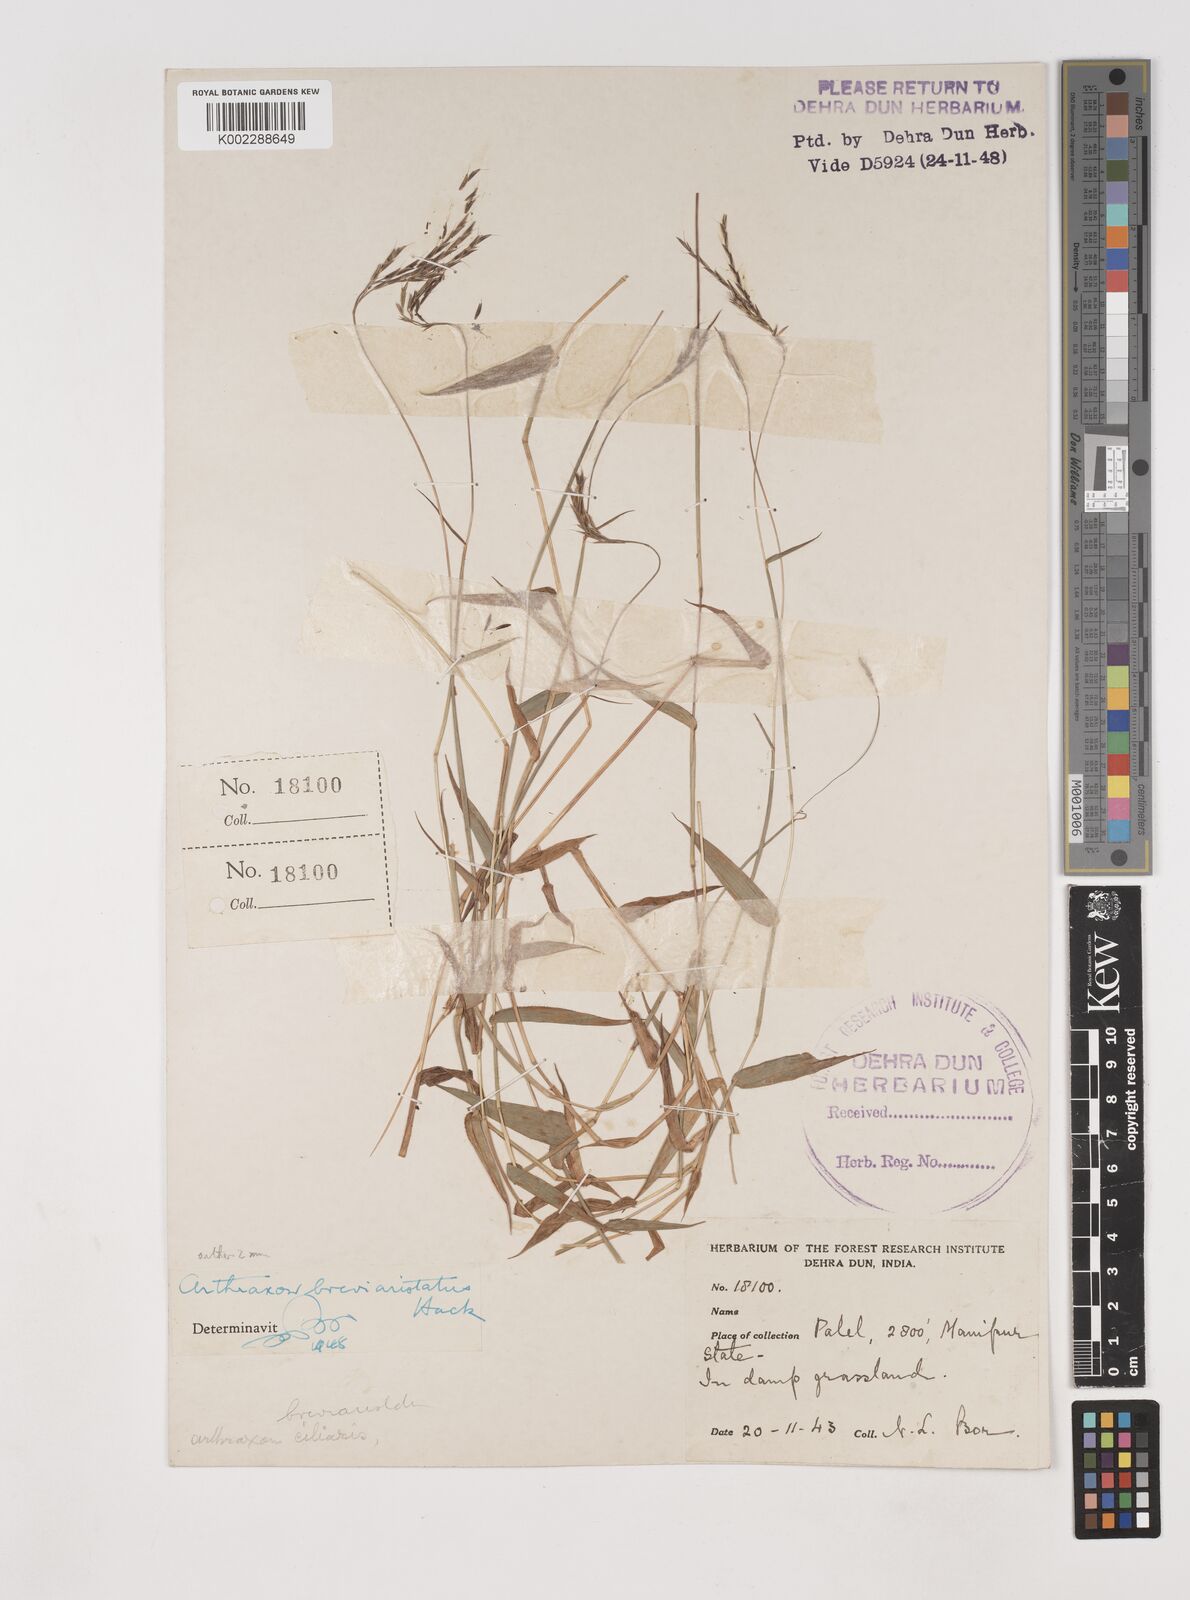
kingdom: Plantae
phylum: Tracheophyta
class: Liliopsida
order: Poales
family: Poaceae
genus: Arthraxon
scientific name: Arthraxon typicus
